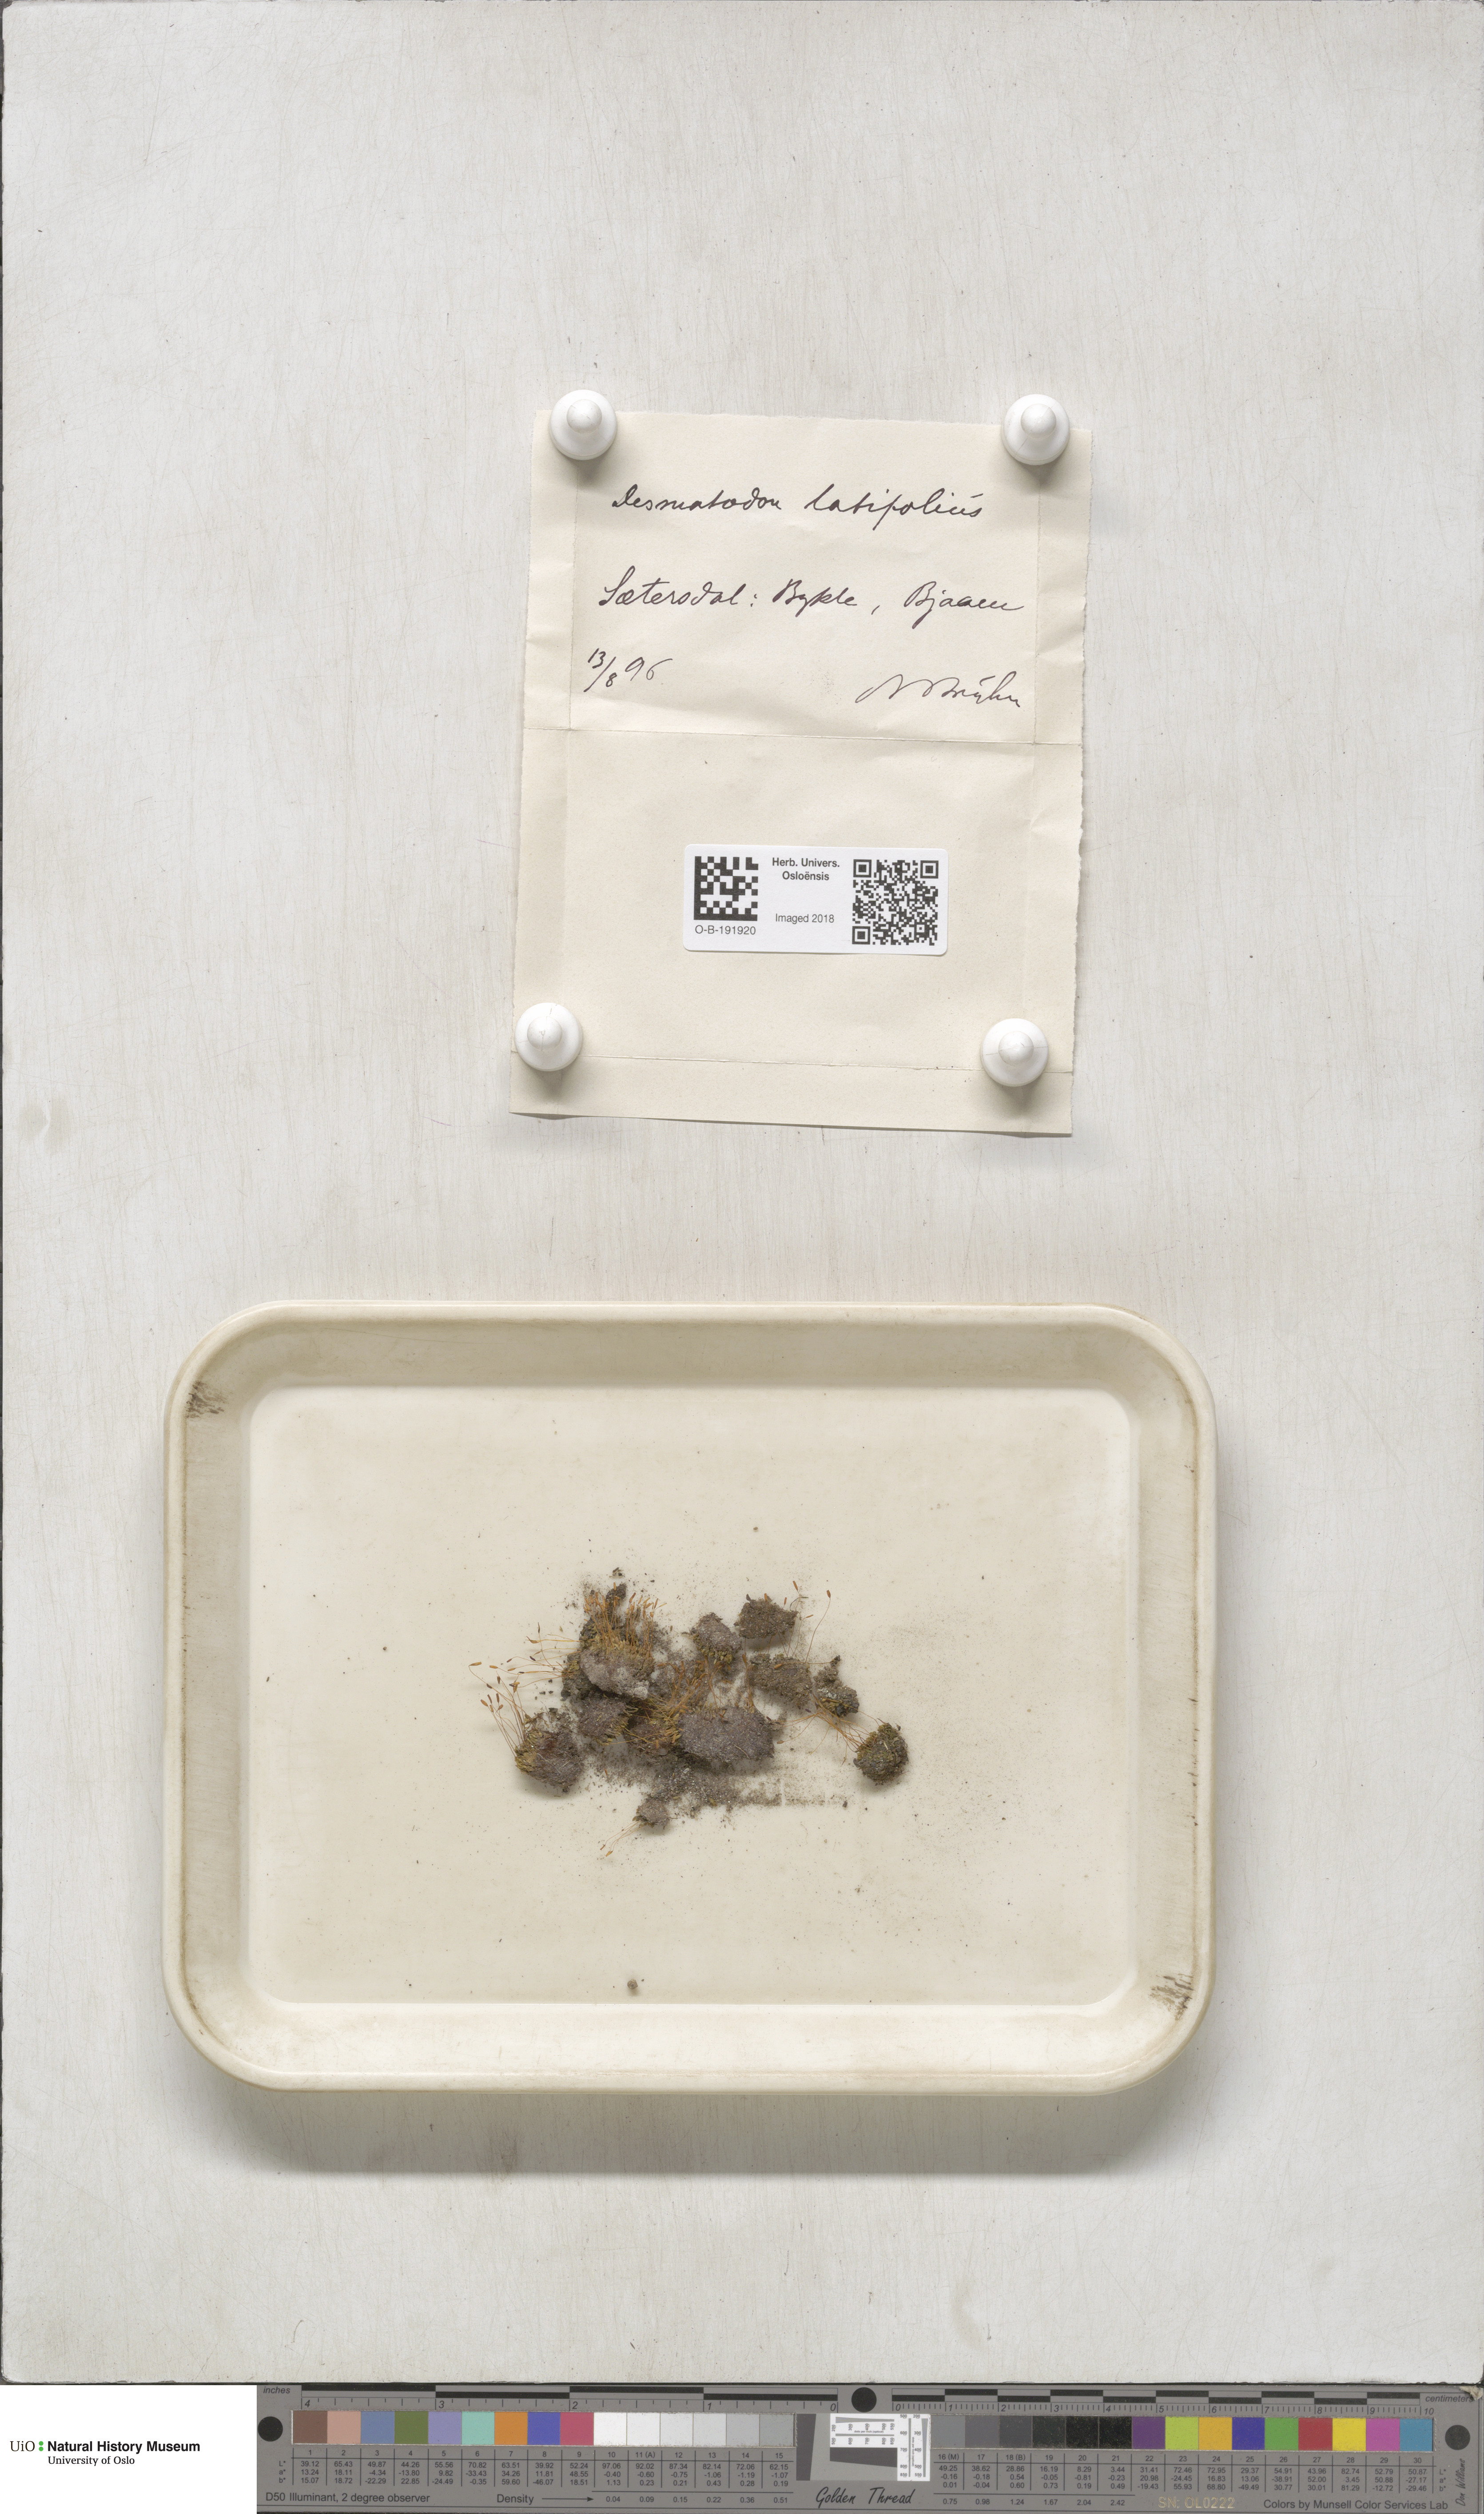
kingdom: Plantae
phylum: Bryophyta
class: Bryopsida
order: Pottiales
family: Pottiaceae
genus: Tortula
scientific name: Tortula hoppeana
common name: Hoppe's screw moss
